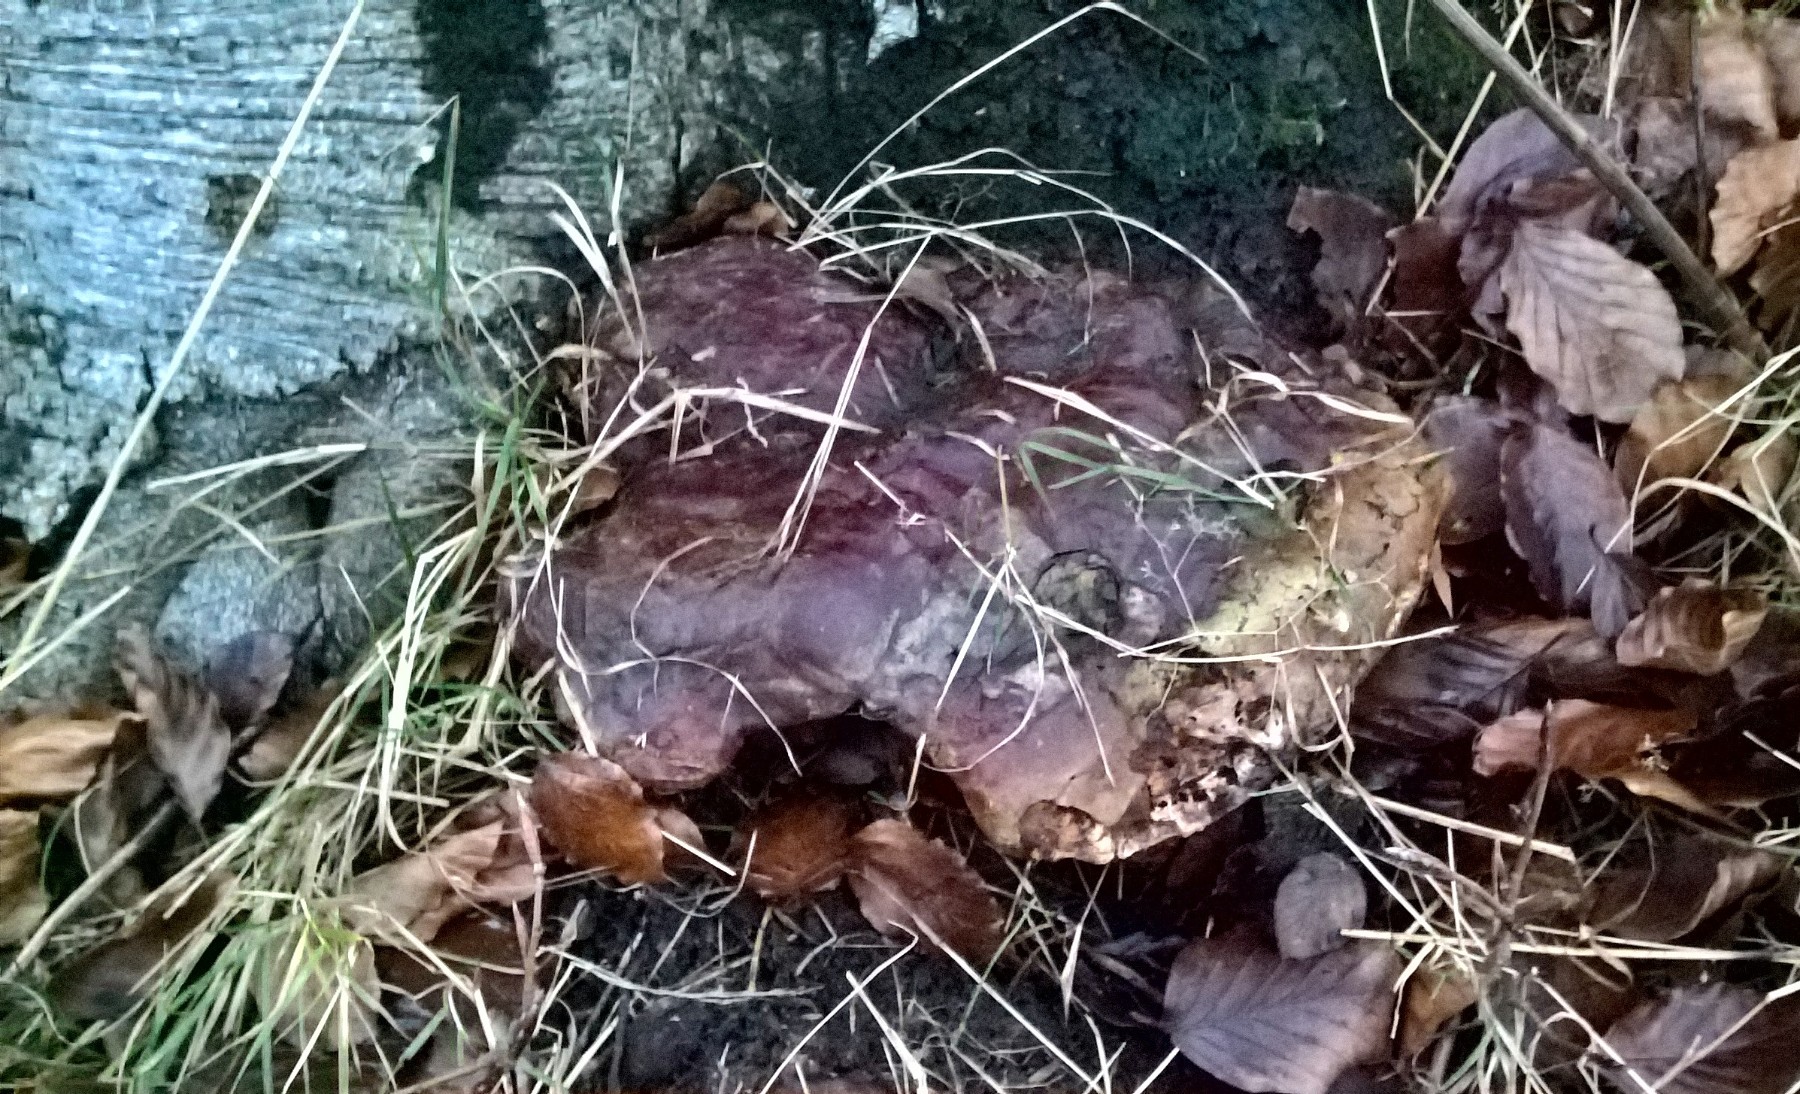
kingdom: Fungi
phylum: Basidiomycota
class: Agaricomycetes
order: Polyporales
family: Polyporaceae
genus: Ganoderma
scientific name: Ganoderma resinaceum
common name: gyldenbrun lakporesvamp
